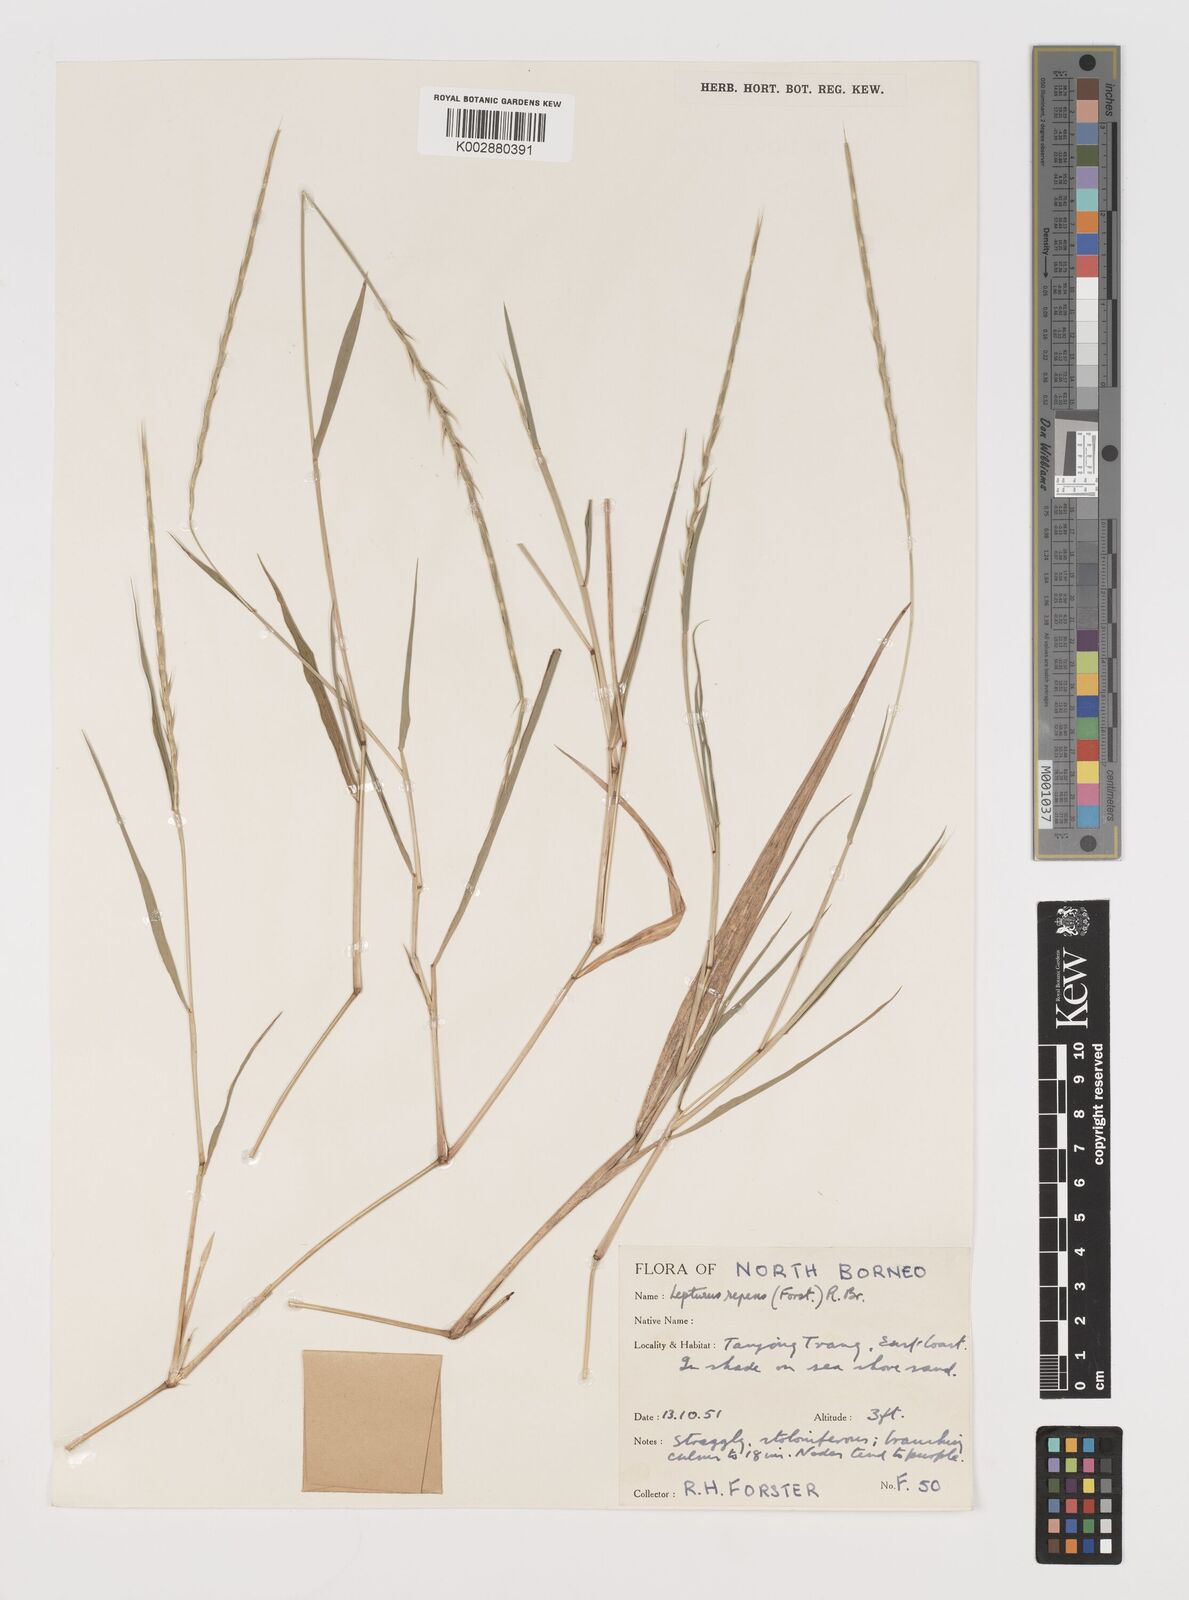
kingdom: Plantae
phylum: Tracheophyta
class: Liliopsida
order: Poales
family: Poaceae
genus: Lepturus
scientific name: Lepturus repens
